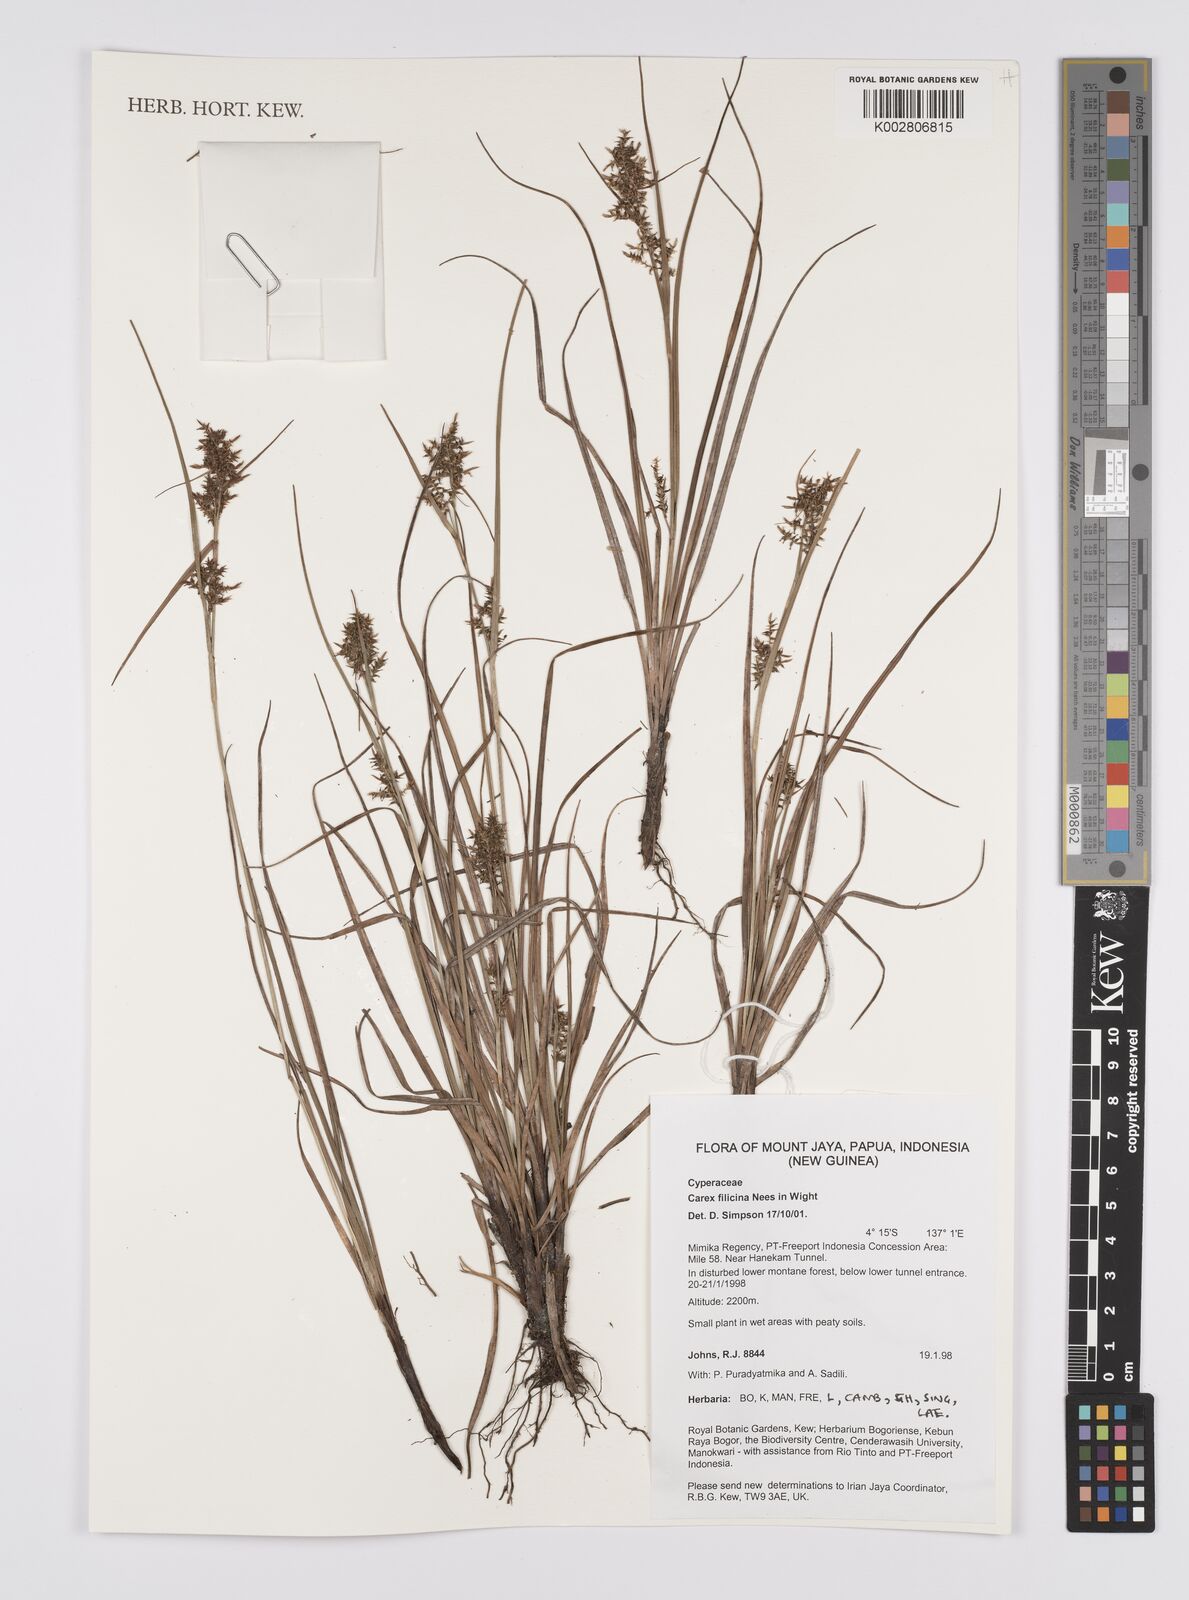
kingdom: Plantae
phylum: Tracheophyta
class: Liliopsida
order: Poales
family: Cyperaceae
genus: Carex
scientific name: Carex filicina
